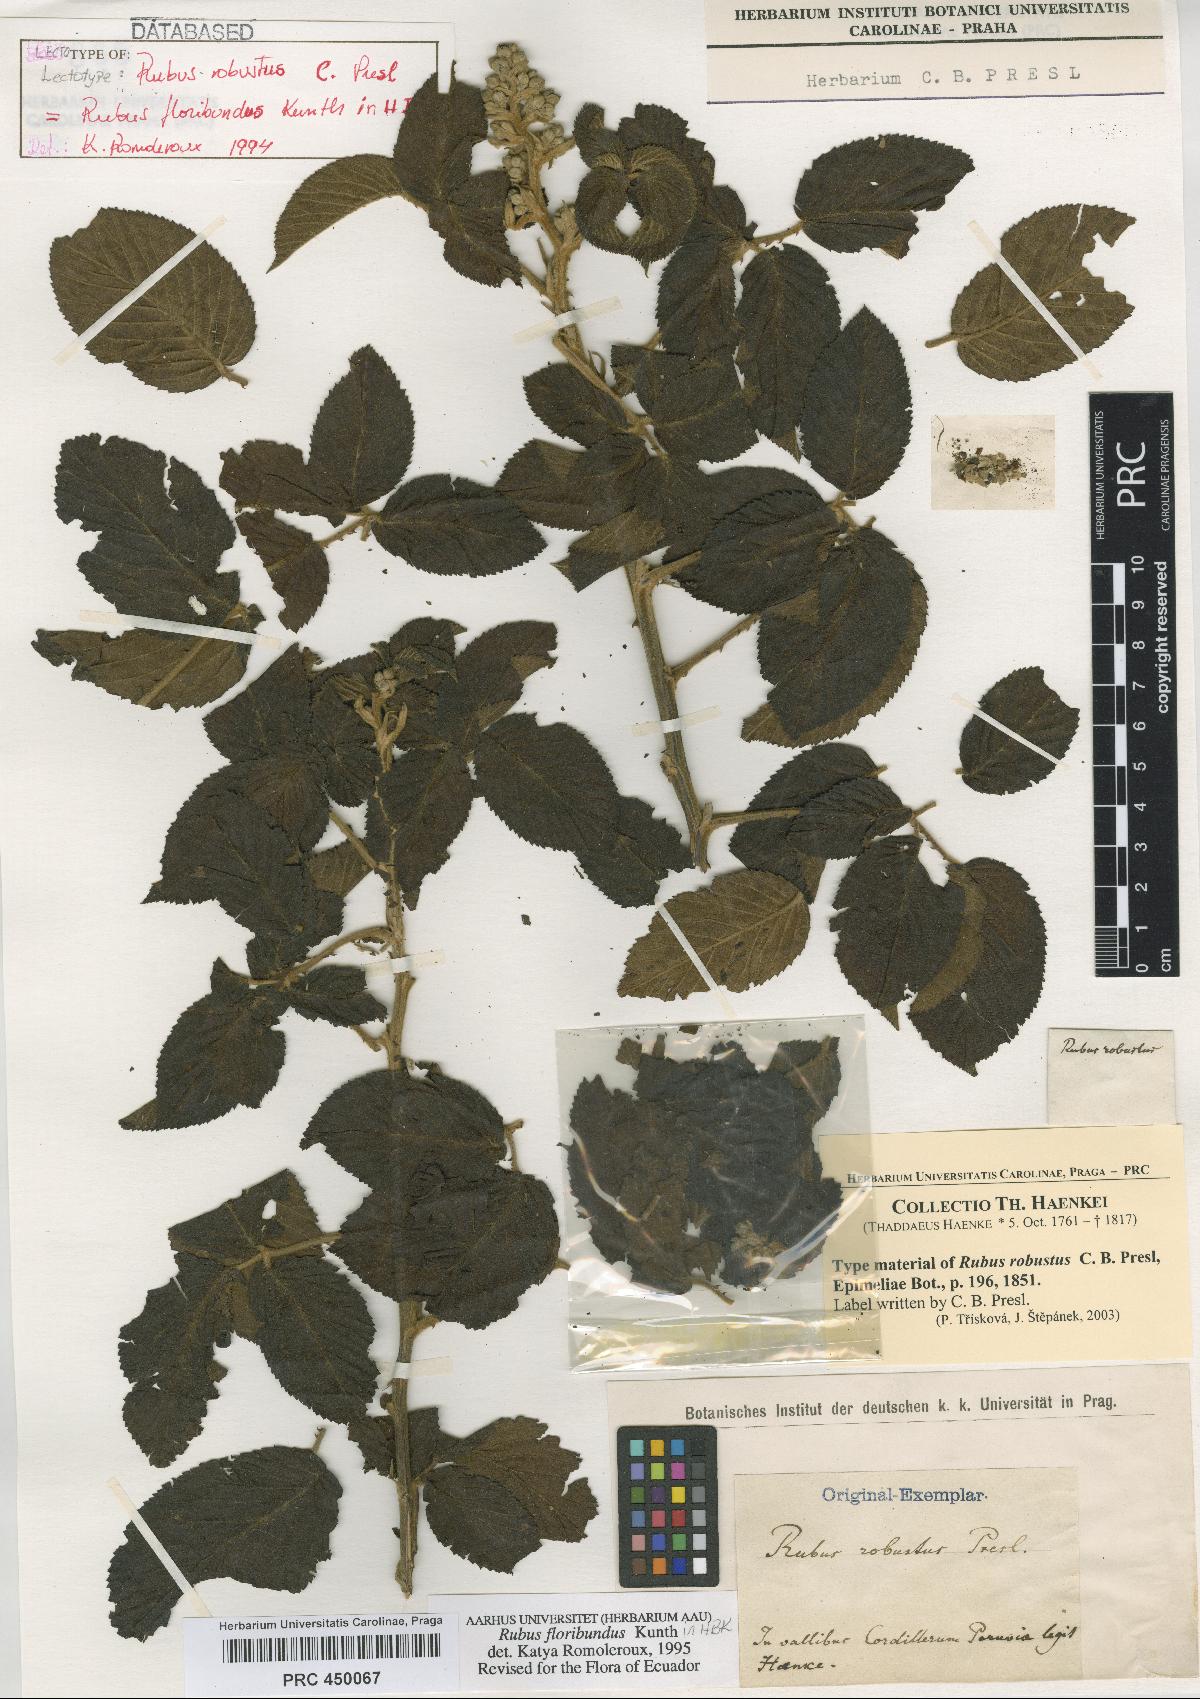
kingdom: Plantae
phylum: Tracheophyta
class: Magnoliopsida
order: Rosales
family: Rosaceae
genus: Rubus
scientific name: Rubus floribundus
